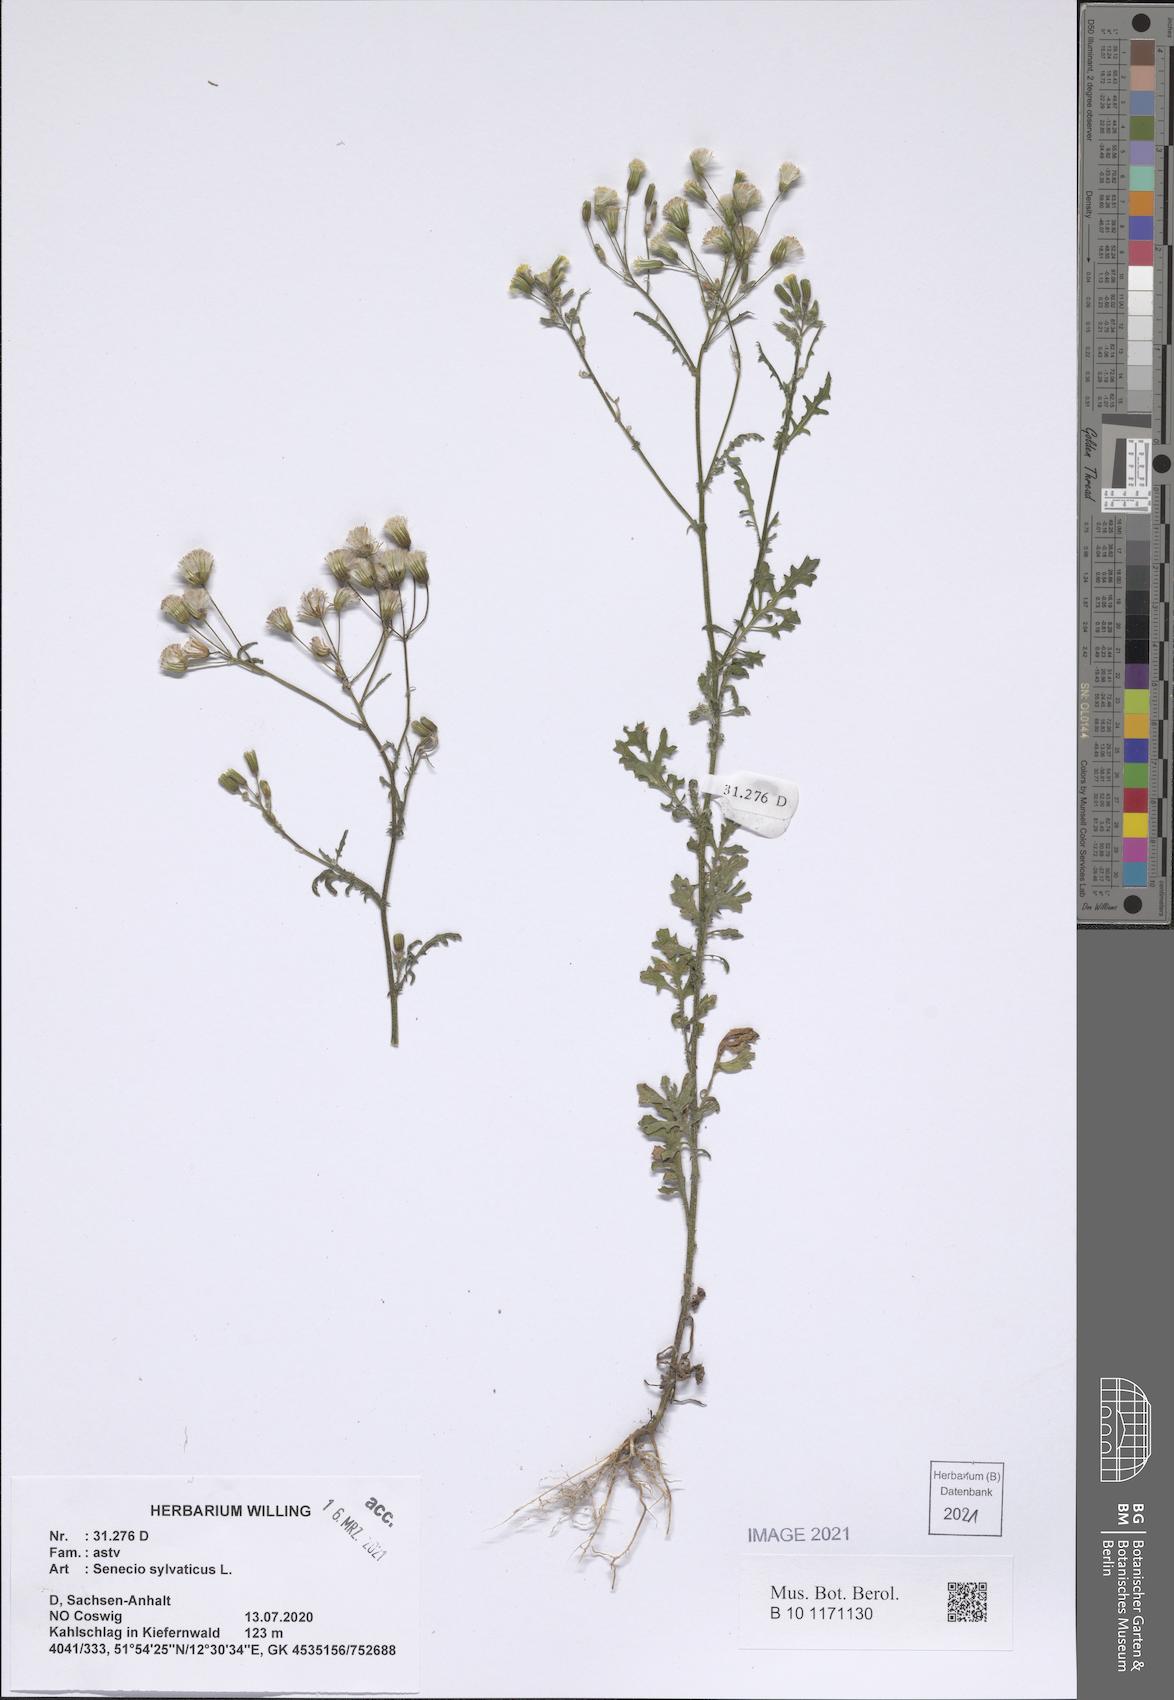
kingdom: Plantae
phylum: Tracheophyta
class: Magnoliopsida
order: Asterales
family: Asteraceae
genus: Senecio
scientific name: Senecio sylvaticus
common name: Woodland ragwort
